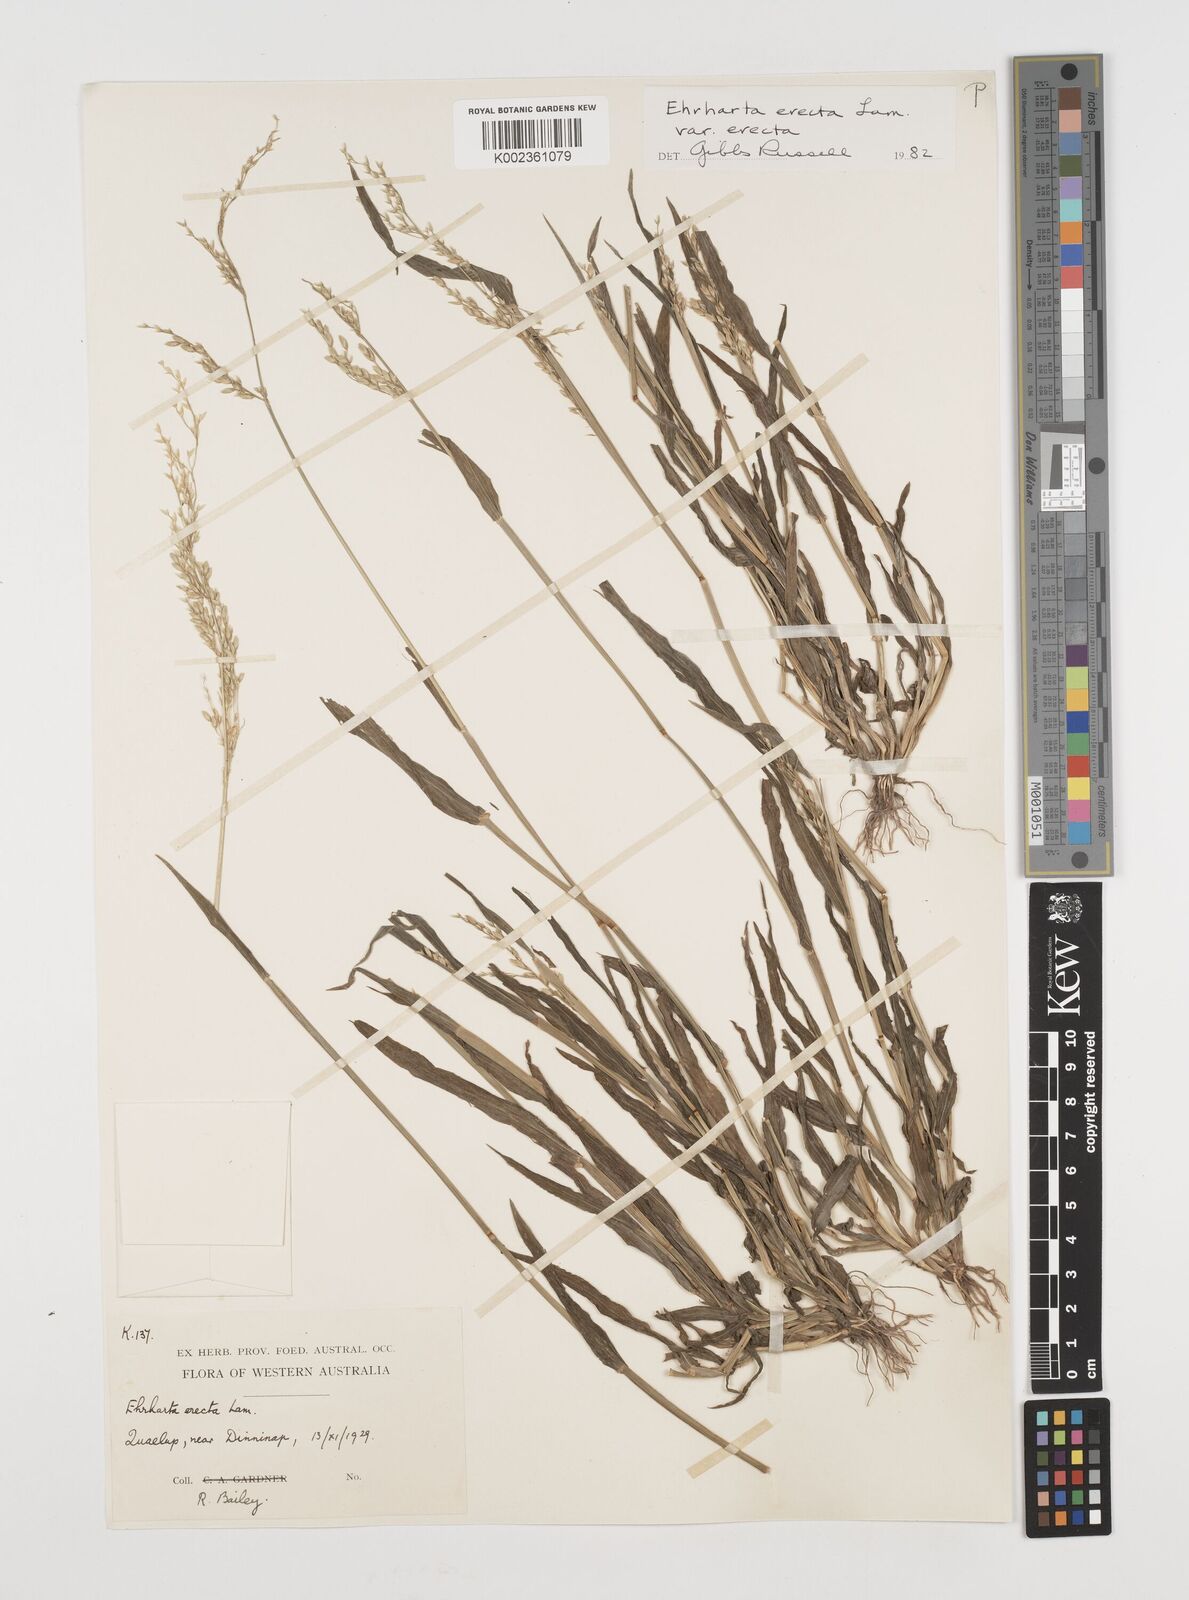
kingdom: Plantae
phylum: Tracheophyta
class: Liliopsida
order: Poales
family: Poaceae
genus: Ehrharta
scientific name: Ehrharta erecta
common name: Panic veldtgrass
